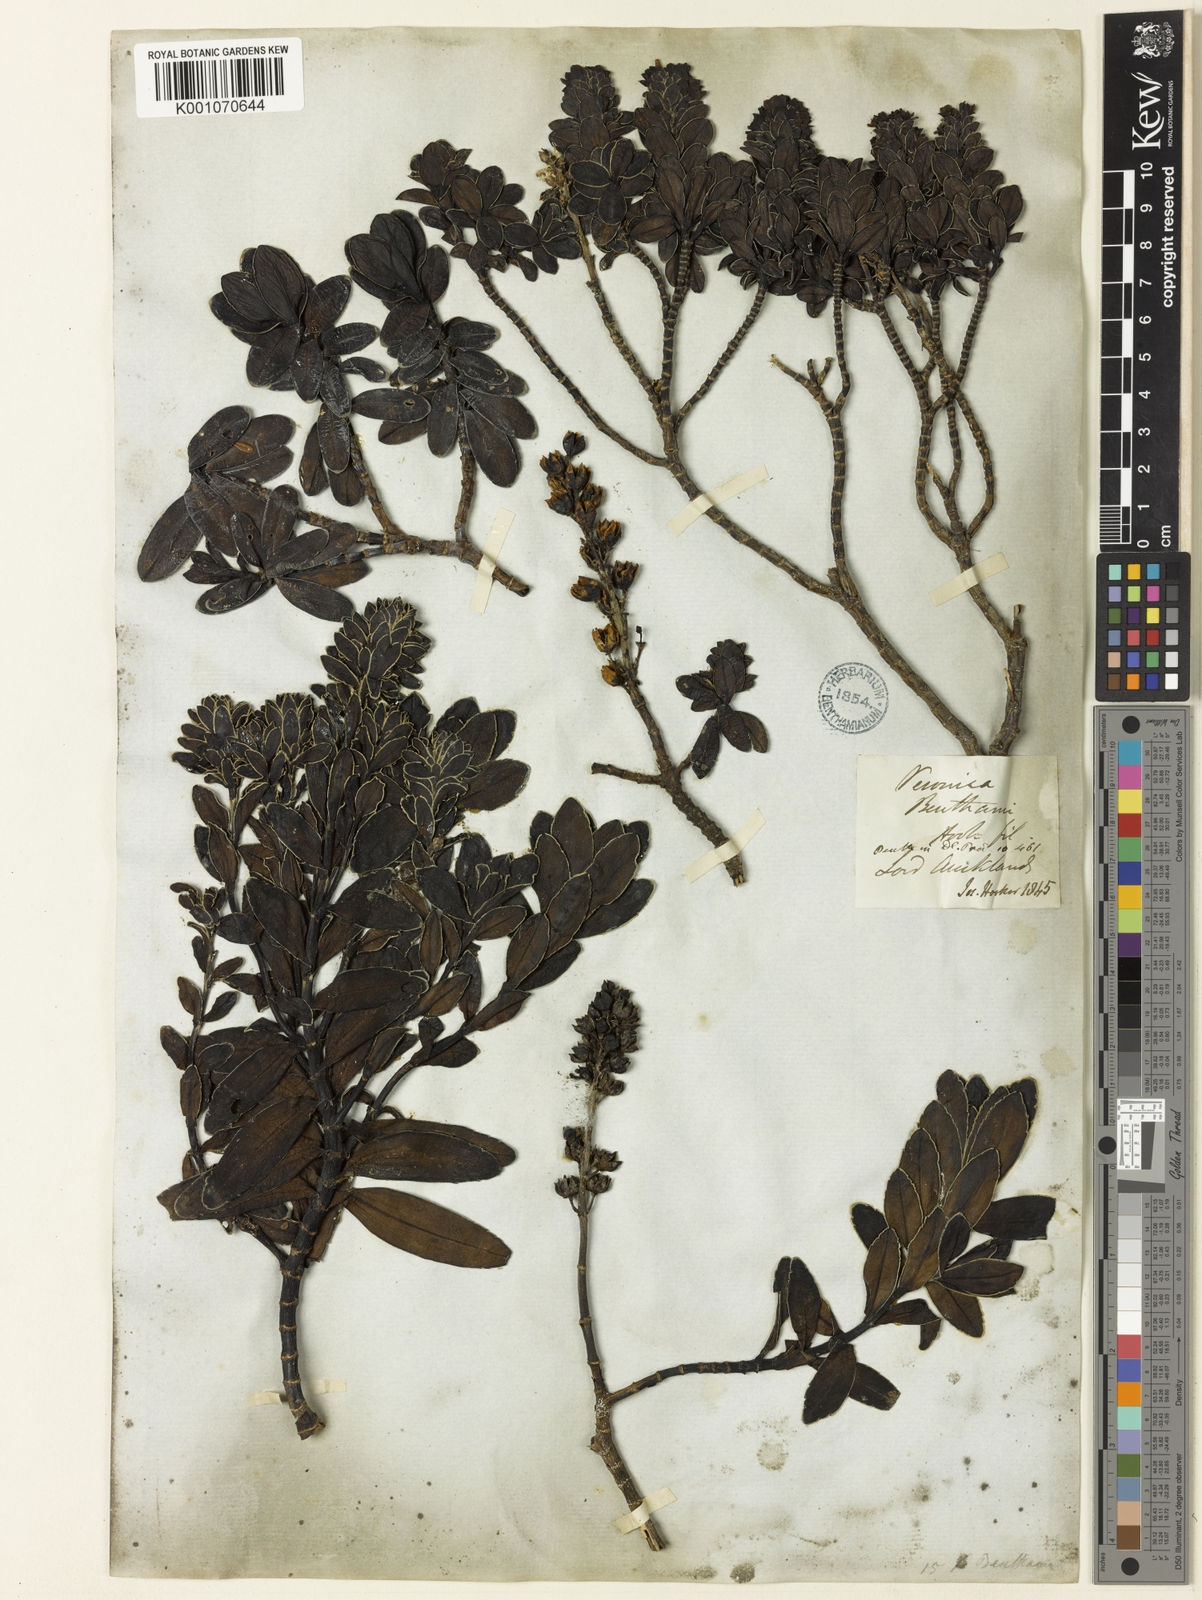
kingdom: Plantae
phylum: Tracheophyta
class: Magnoliopsida
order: Lamiales
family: Plantaginaceae
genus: Veronica
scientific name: Veronica benthamii
